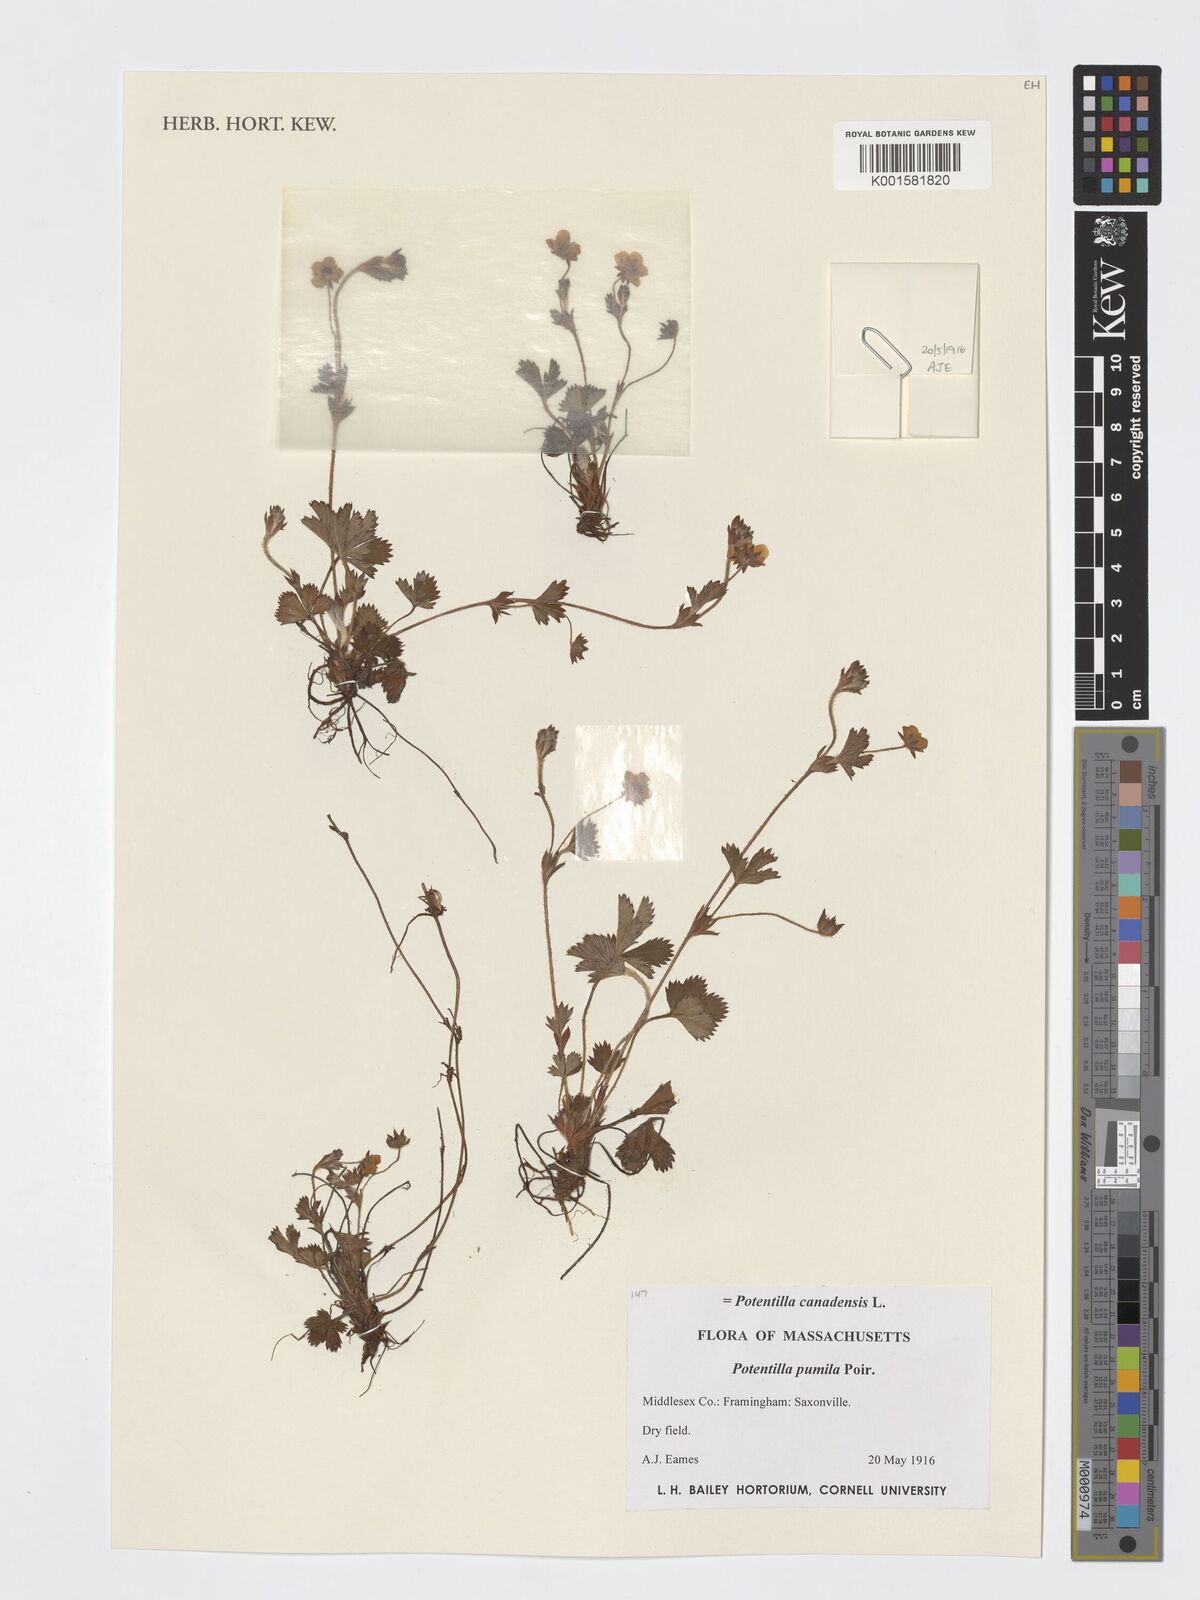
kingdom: Plantae
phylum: Tracheophyta
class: Magnoliopsida
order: Rosales
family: Rosaceae
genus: Potentilla
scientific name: Potentilla canadensis
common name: Canada cinquefoil
